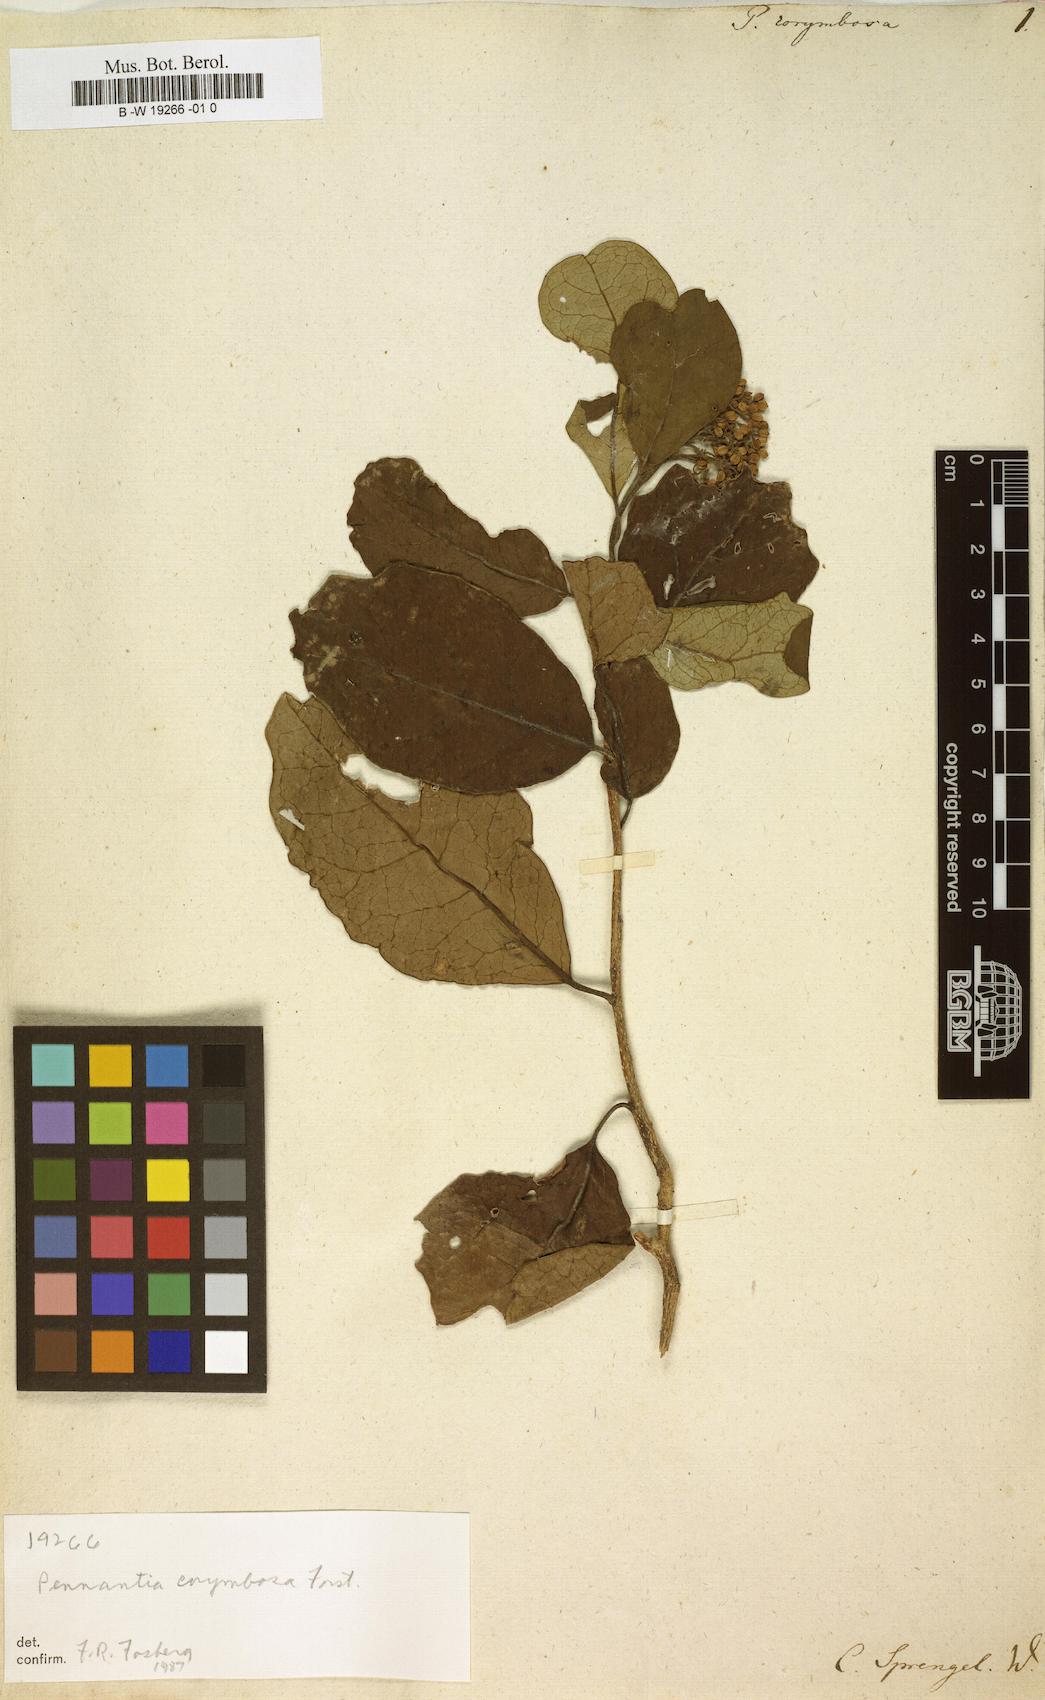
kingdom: Plantae
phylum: Tracheophyta
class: Magnoliopsida
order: Apiales
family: Pennantiaceae
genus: Pennantia
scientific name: Pennantia corymbosa
